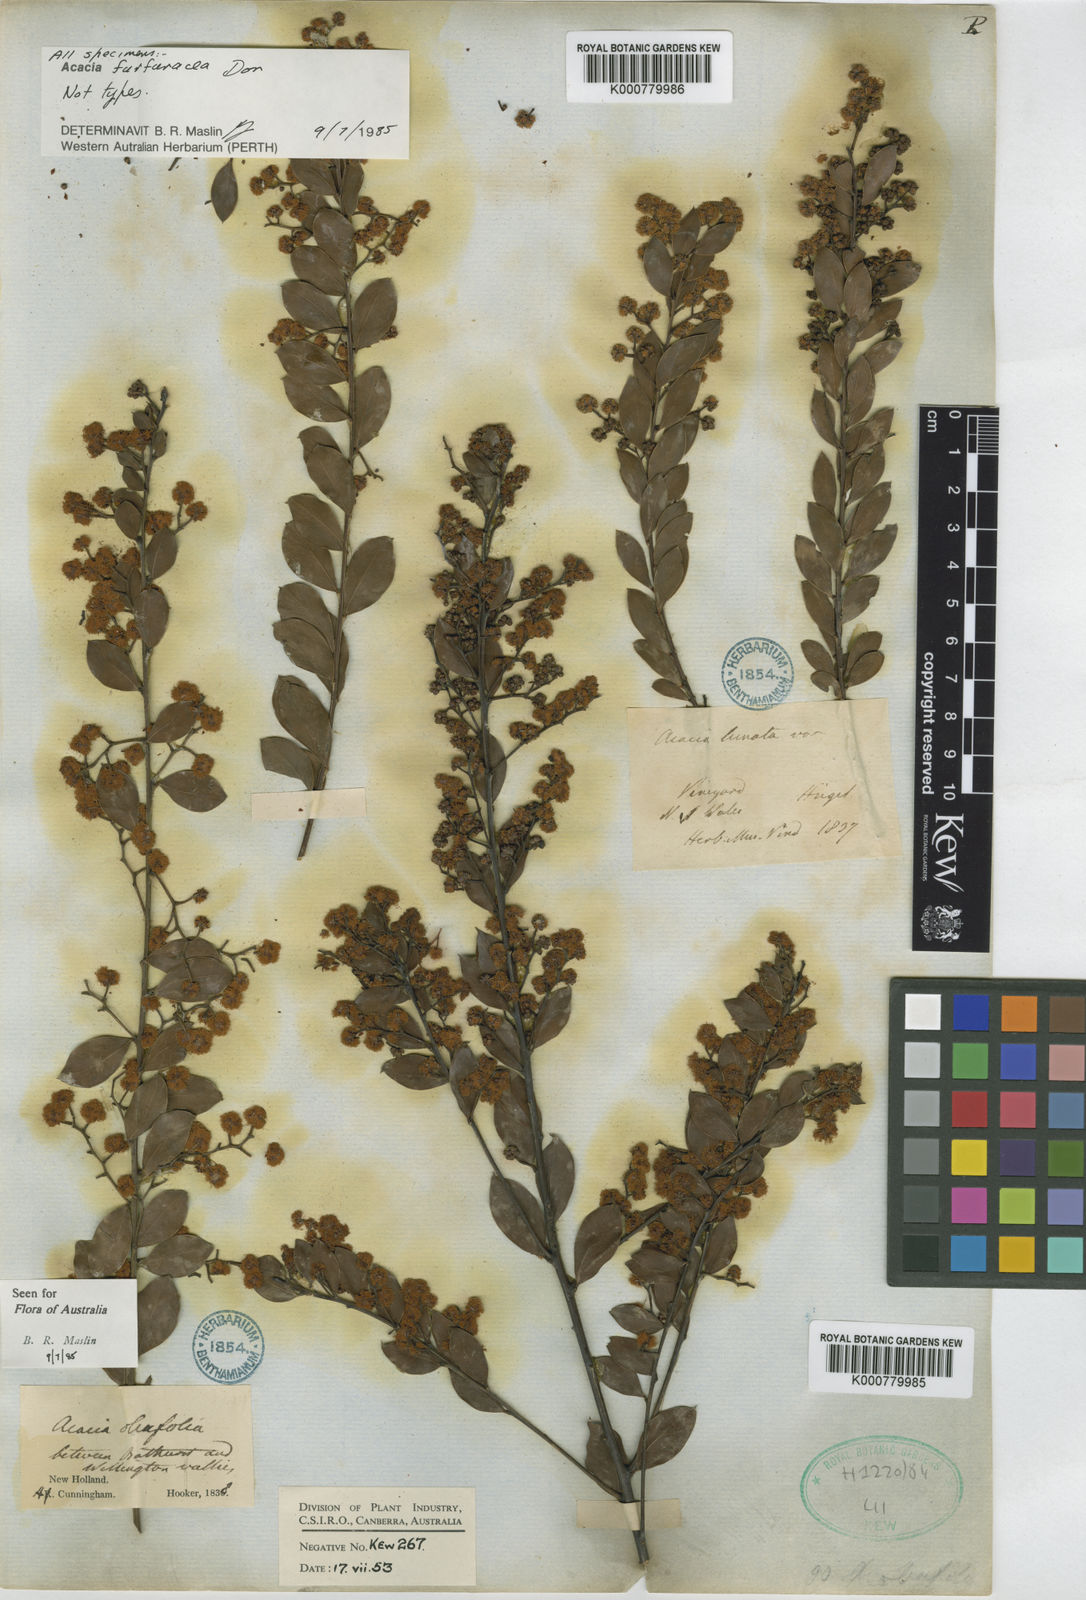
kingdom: Plantae
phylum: Tracheophyta
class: Magnoliopsida
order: Fabales
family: Fabaceae
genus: Acacia
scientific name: Acacia lunata
